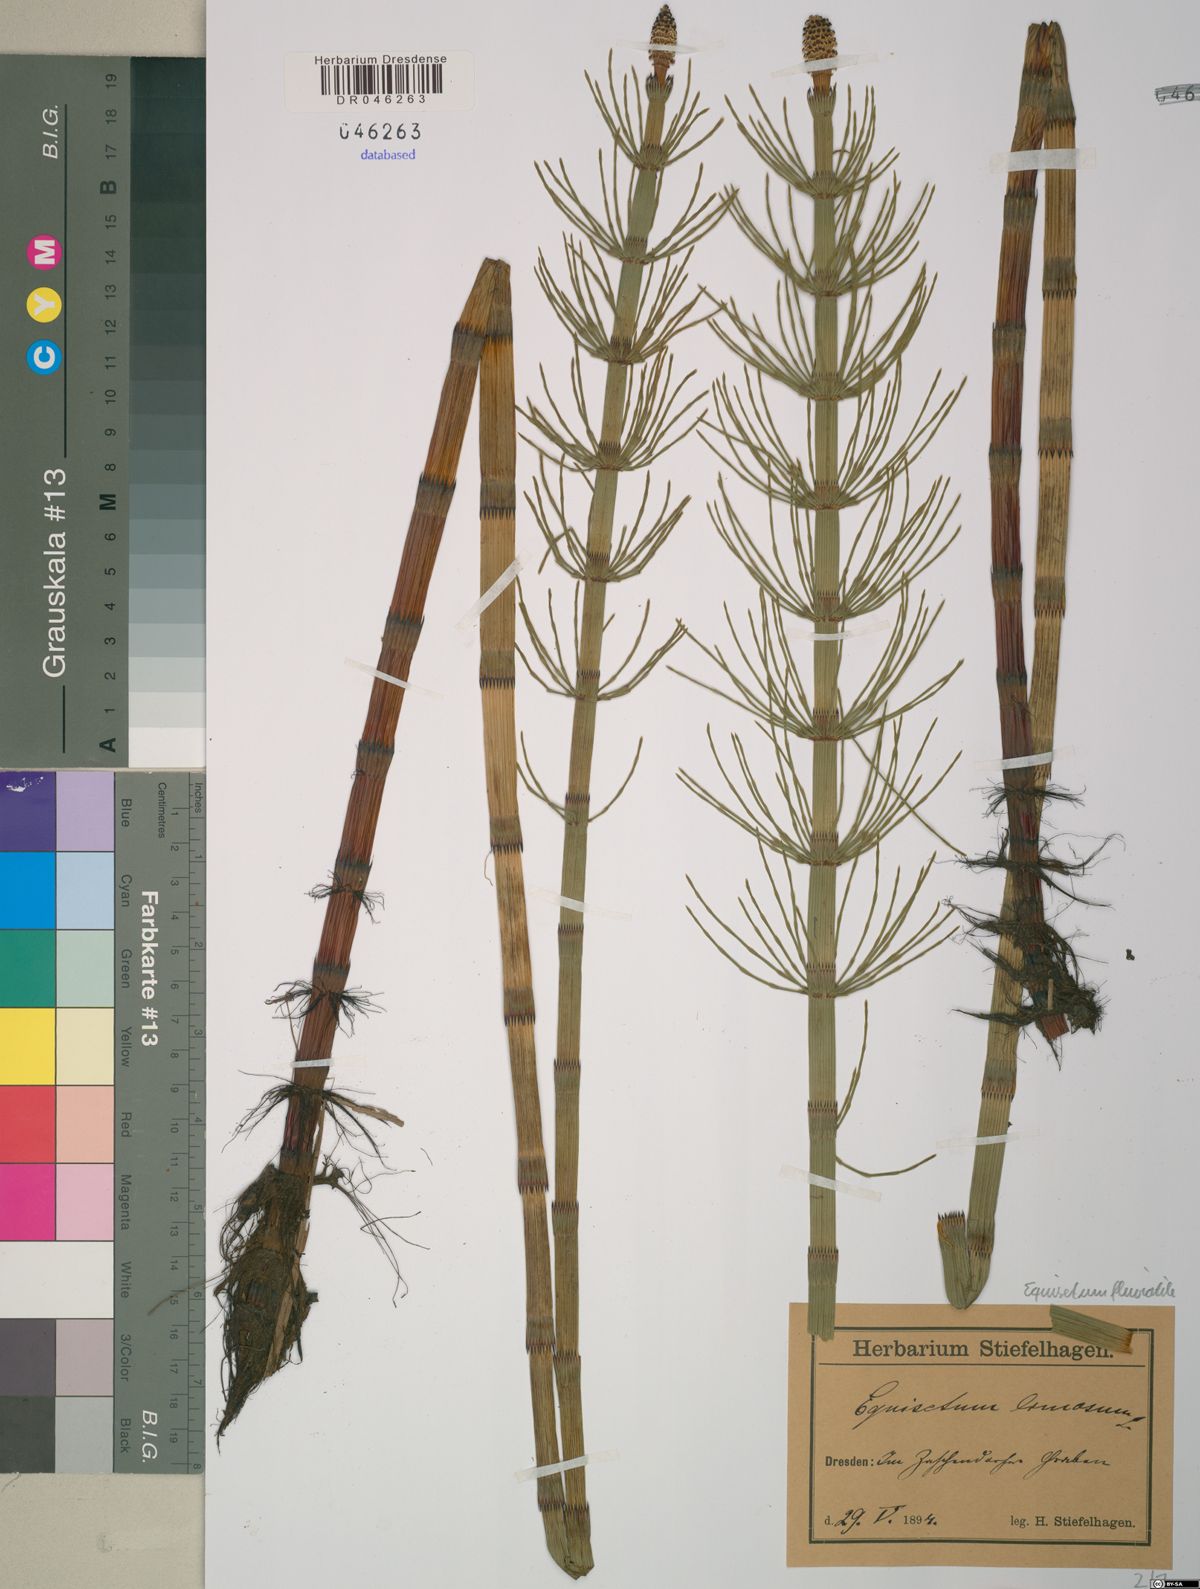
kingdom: Plantae
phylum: Tracheophyta
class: Polypodiopsida
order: Equisetales
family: Equisetaceae
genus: Equisetum
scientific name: Equisetum fluviatile
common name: Water horsetail
